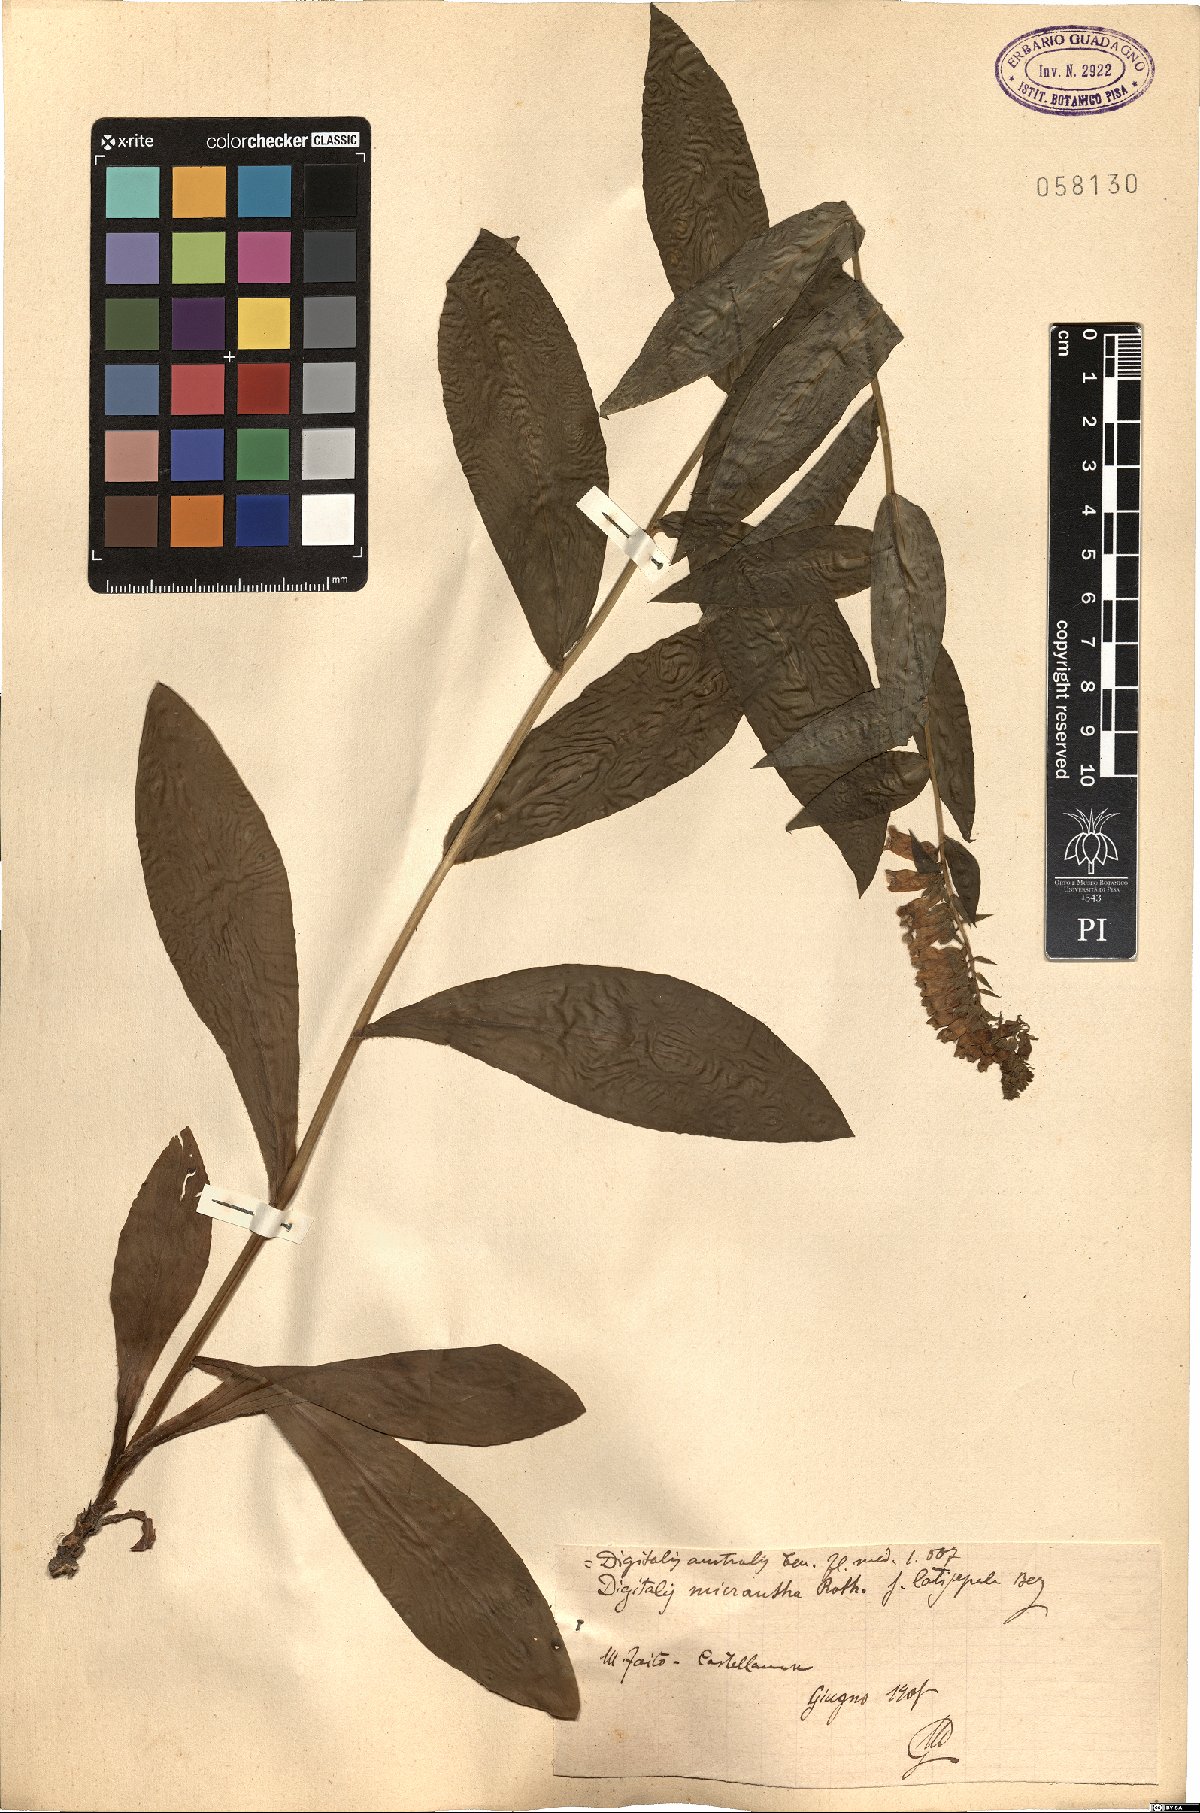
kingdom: Plantae
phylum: Tracheophyta
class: Magnoliopsida
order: Lamiales
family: Plantaginaceae
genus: Digitalis
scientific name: Digitalis lutea
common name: Straw foxglove
